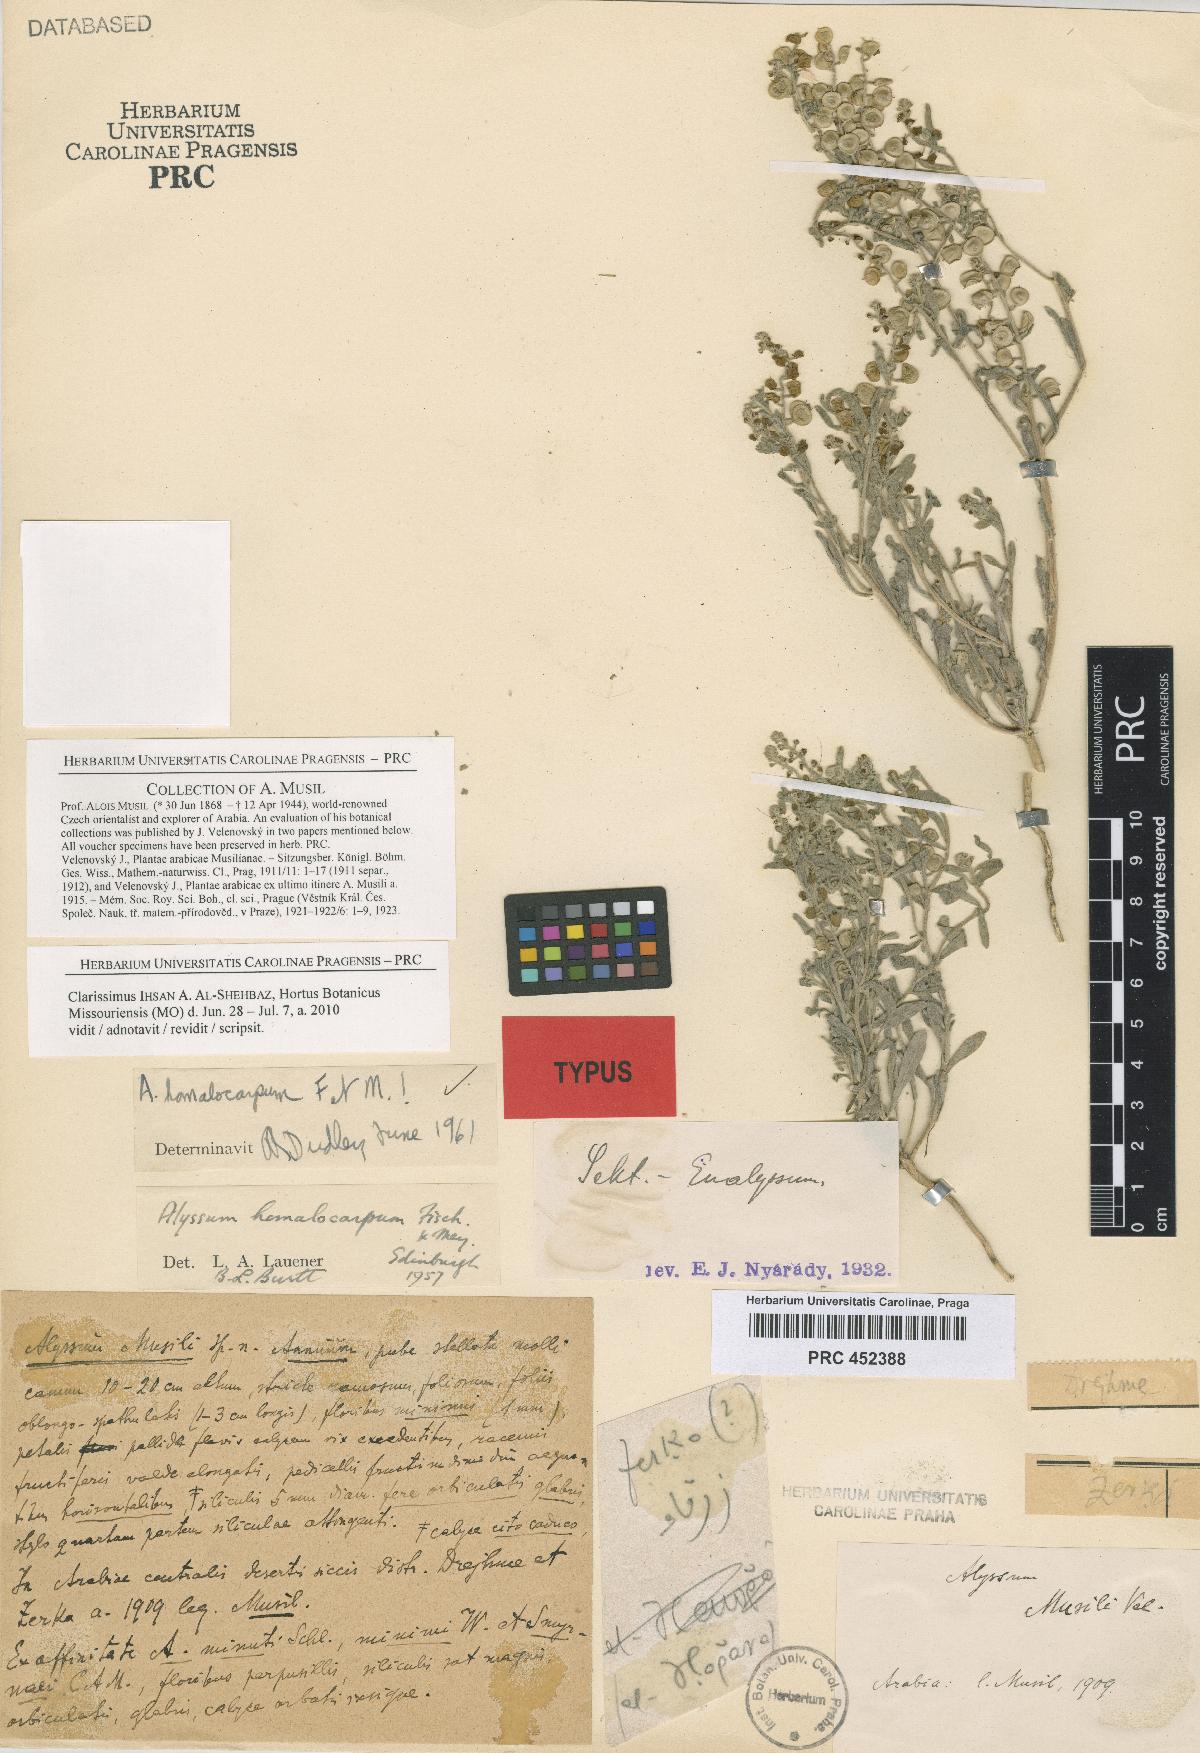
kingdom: Plantae
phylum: Tracheophyta
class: Magnoliopsida
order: Brassicales
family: Brassicaceae
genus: Cuprella
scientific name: Cuprella homalocarpa
